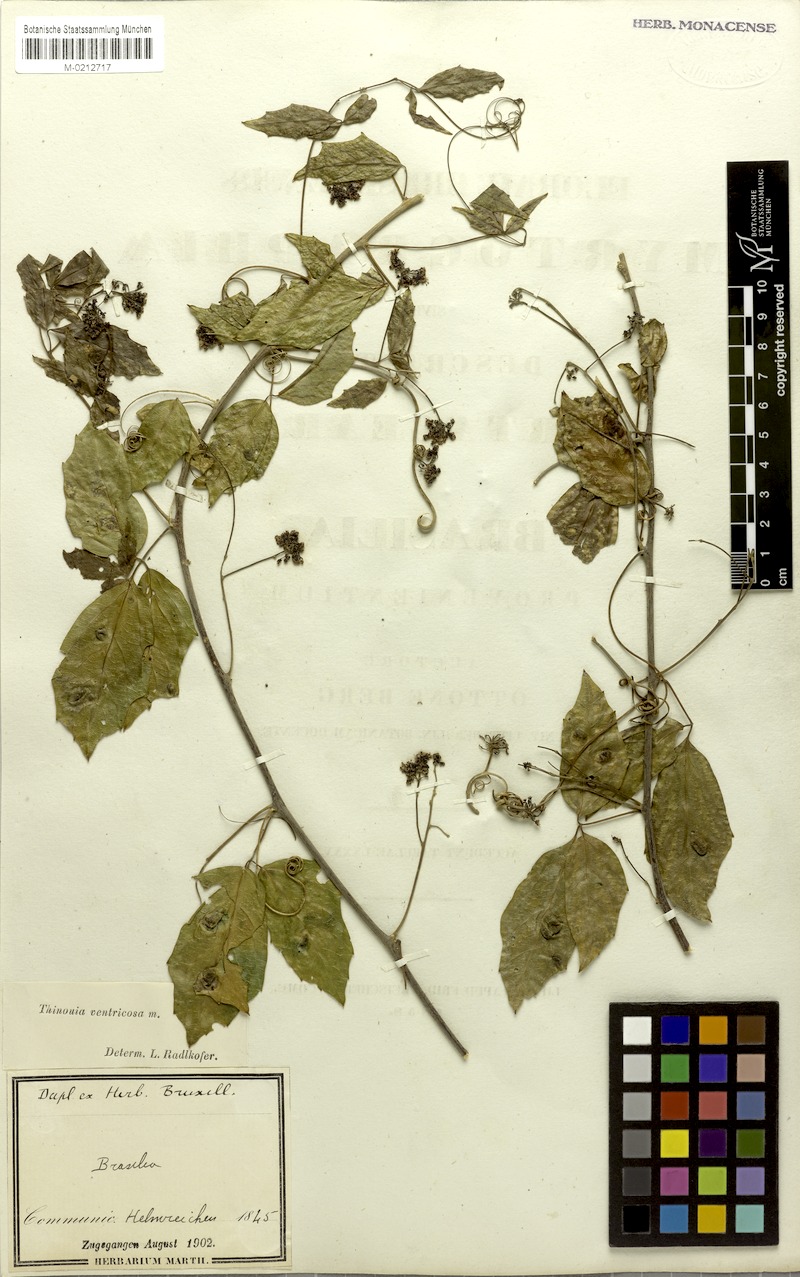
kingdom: Plantae
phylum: Tracheophyta
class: Magnoliopsida
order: Sapindales
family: Sapindaceae
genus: Thinouia
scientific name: Thinouia ventricosa
